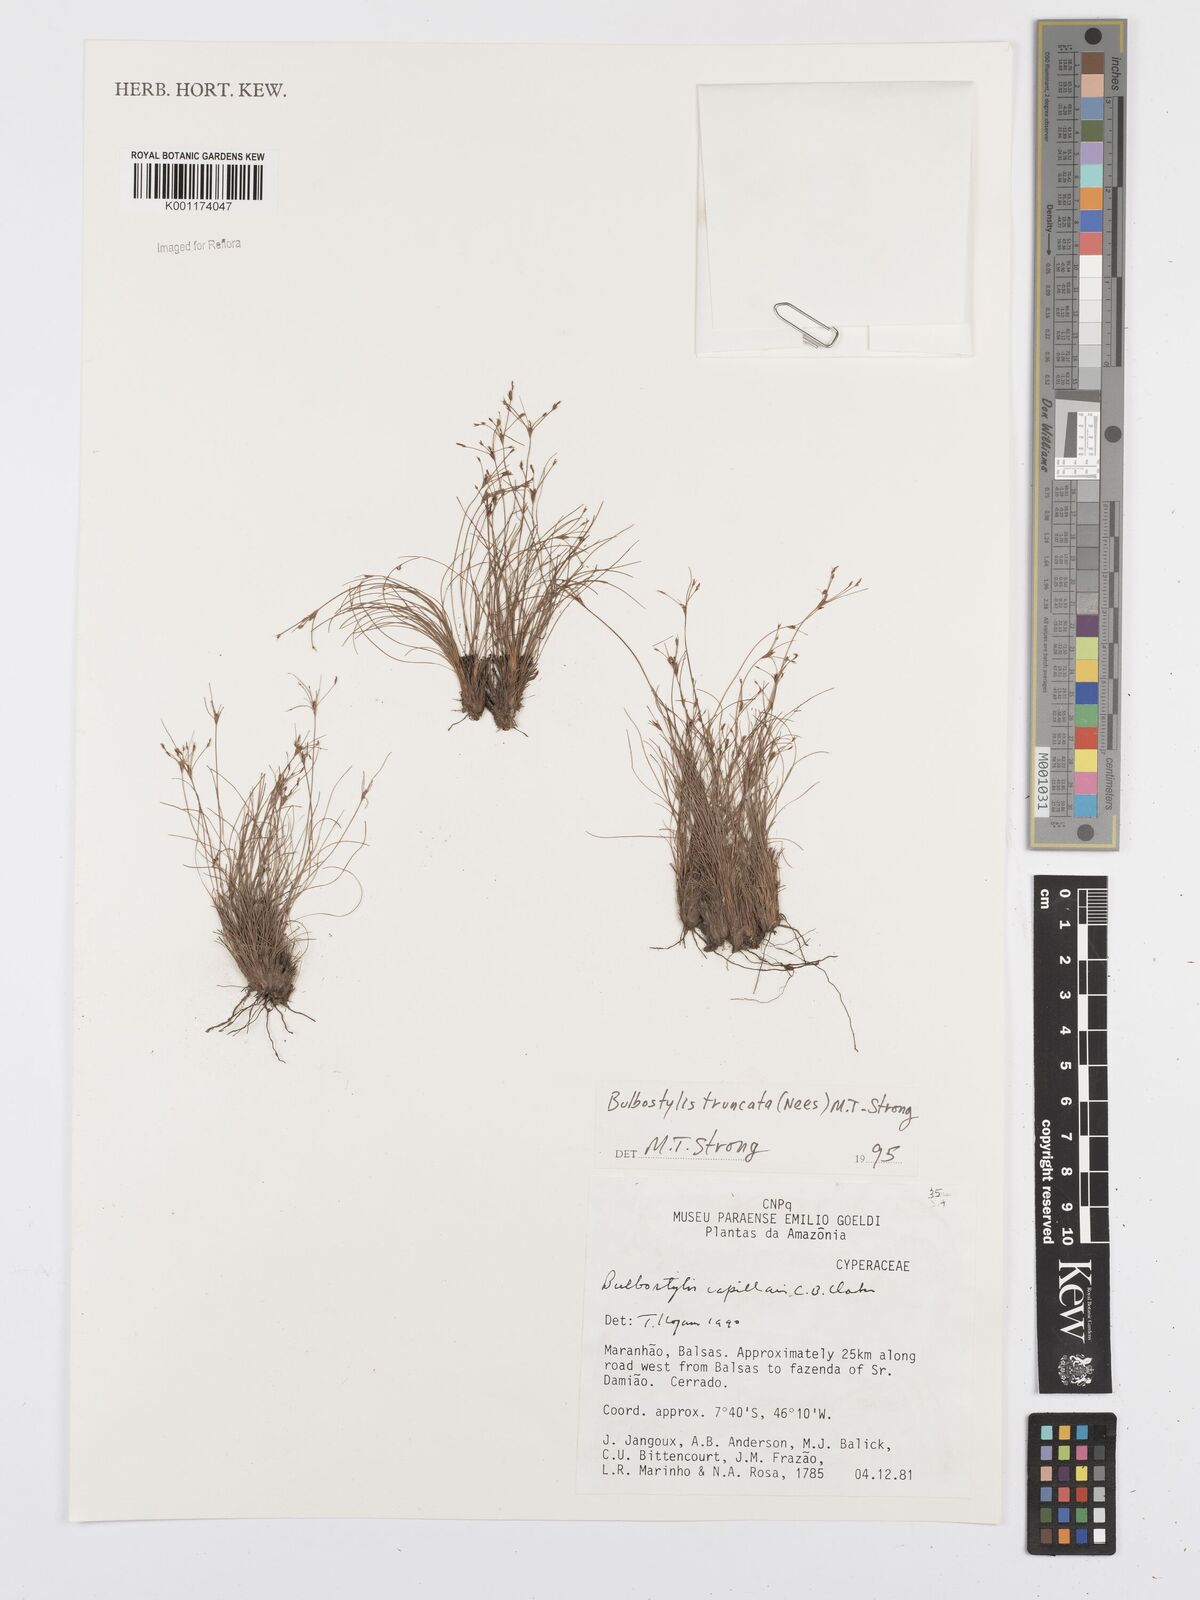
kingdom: Plantae
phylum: Tracheophyta
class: Liliopsida
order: Poales
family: Cyperaceae
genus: Bulbostylis
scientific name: Bulbostylis truncata
